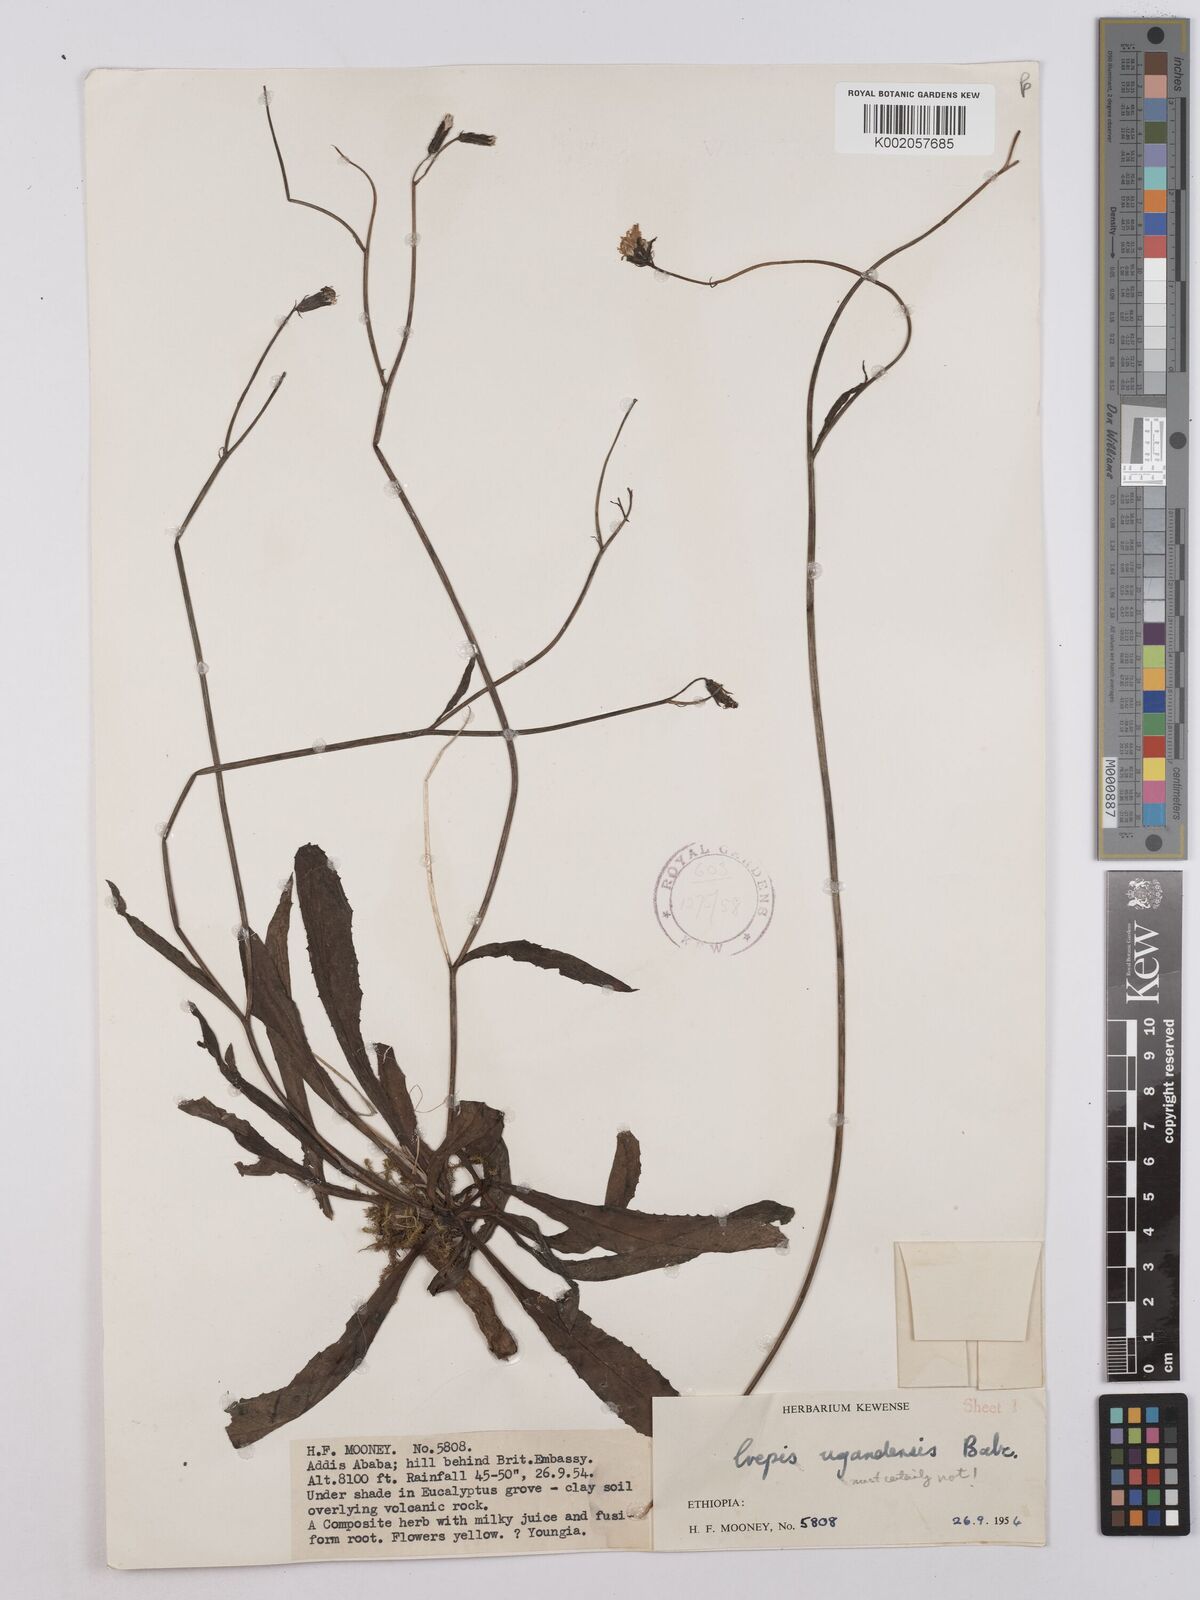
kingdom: Plantae
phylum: Tracheophyta
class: Magnoliopsida
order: Asterales
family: Asteraceae
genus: Crepis
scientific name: Crepis rueppellii
